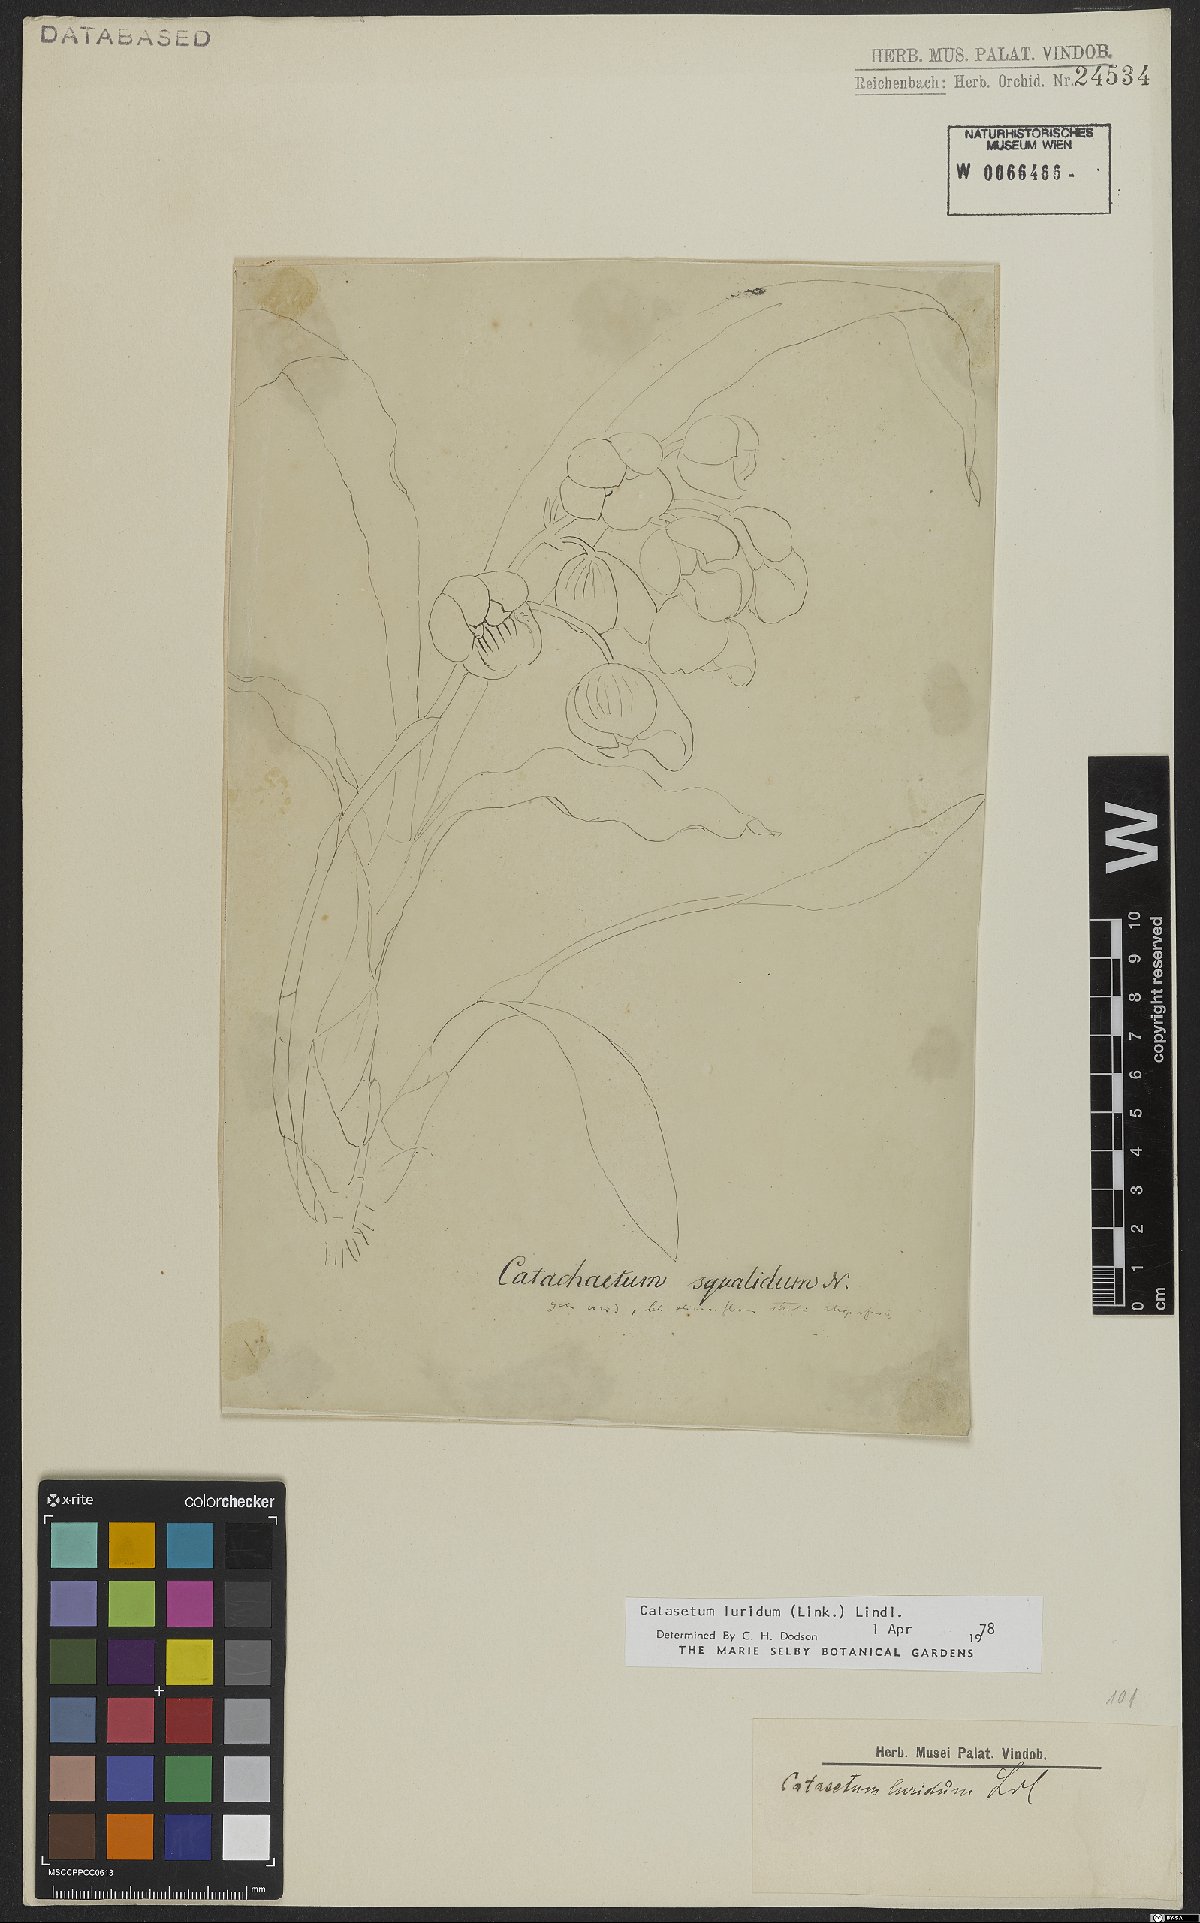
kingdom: Plantae
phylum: Tracheophyta
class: Liliopsida
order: Asparagales
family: Orchidaceae
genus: Catasetum
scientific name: Catasetum luridum
